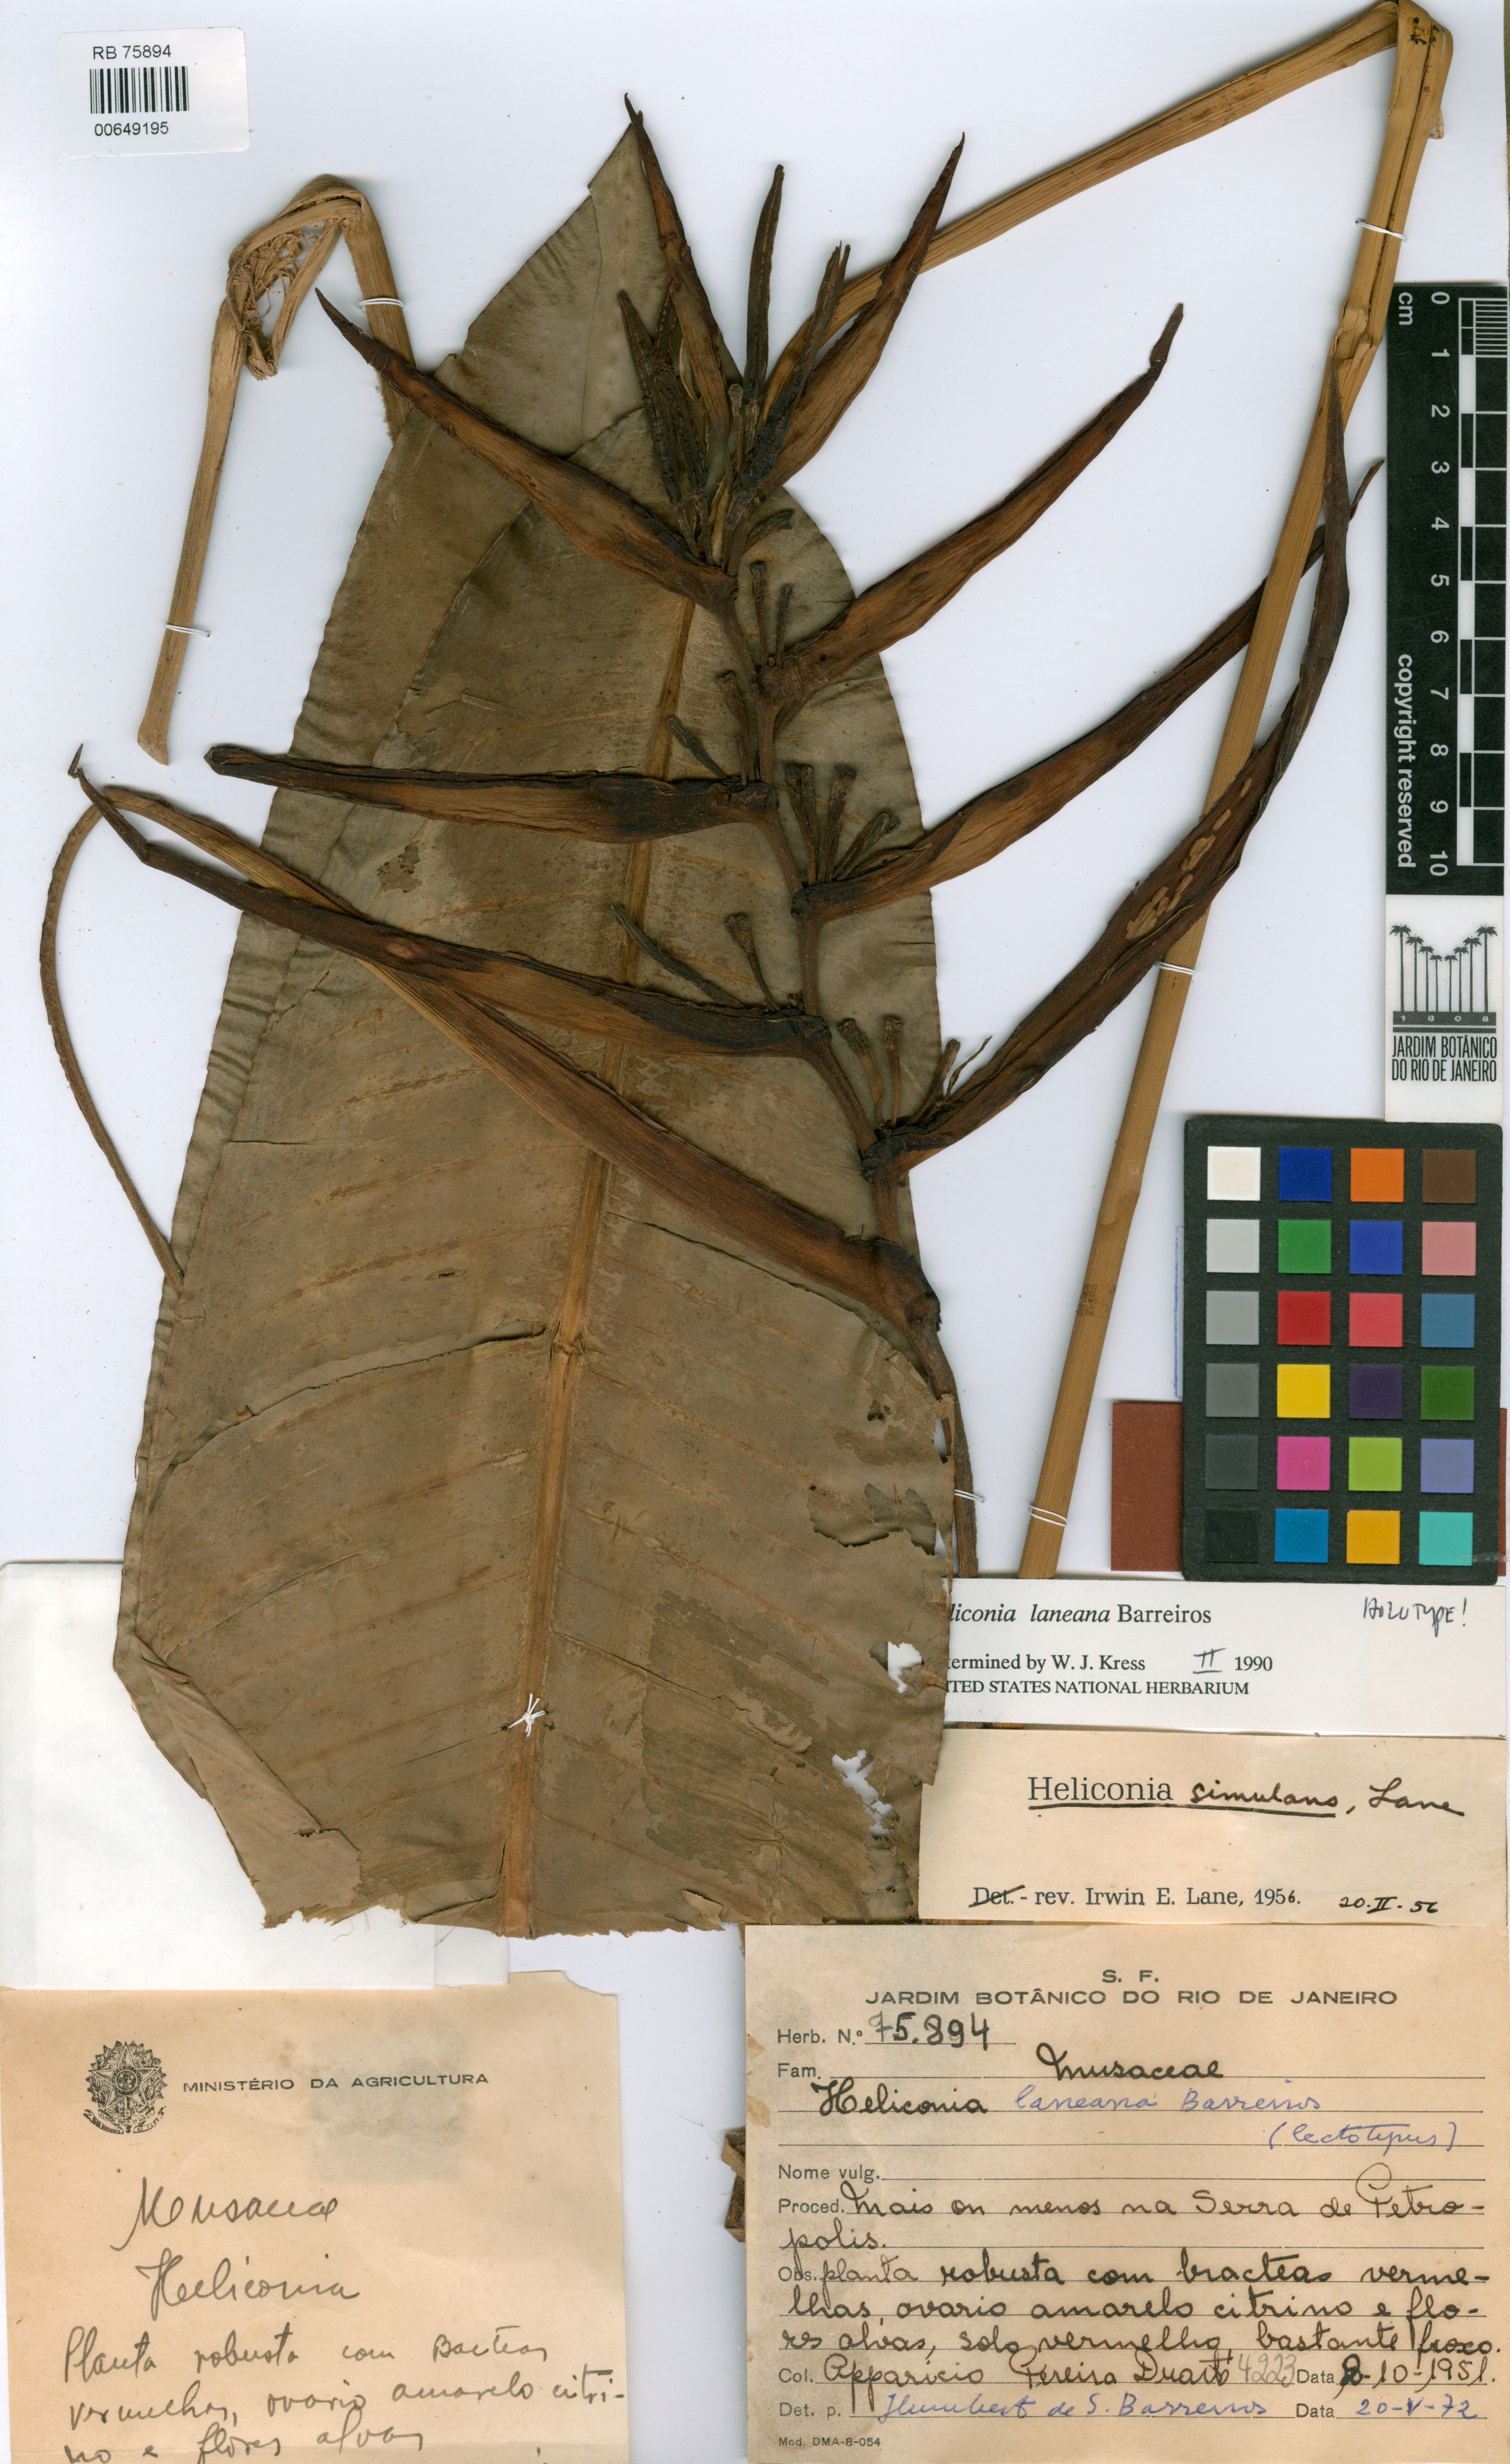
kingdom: Plantae
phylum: Tracheophyta
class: Liliopsida
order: Zingiberales
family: Heliconiaceae
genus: Heliconia
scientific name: Heliconia angusta
